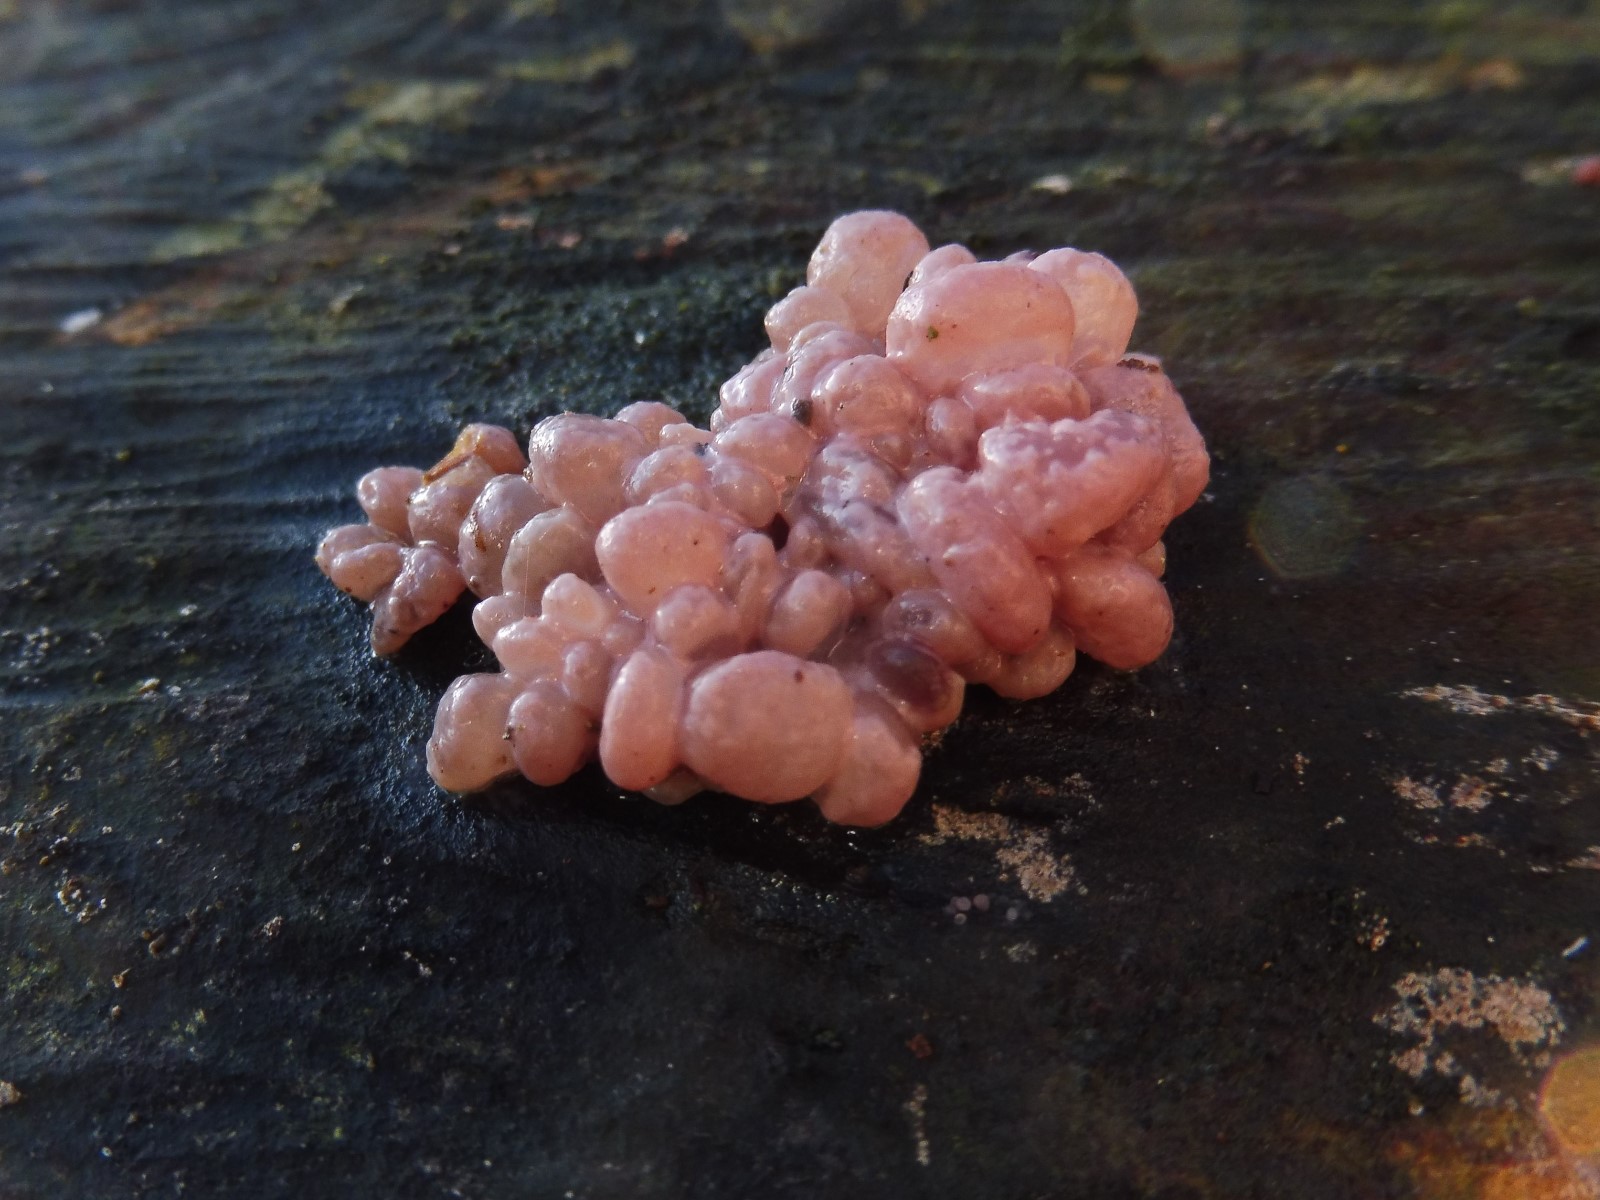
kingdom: Fungi
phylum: Ascomycota
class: Leotiomycetes
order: Helotiales
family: Gelatinodiscaceae
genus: Ascocoryne
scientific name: Ascocoryne sarcoides
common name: rødlilla sejskive
